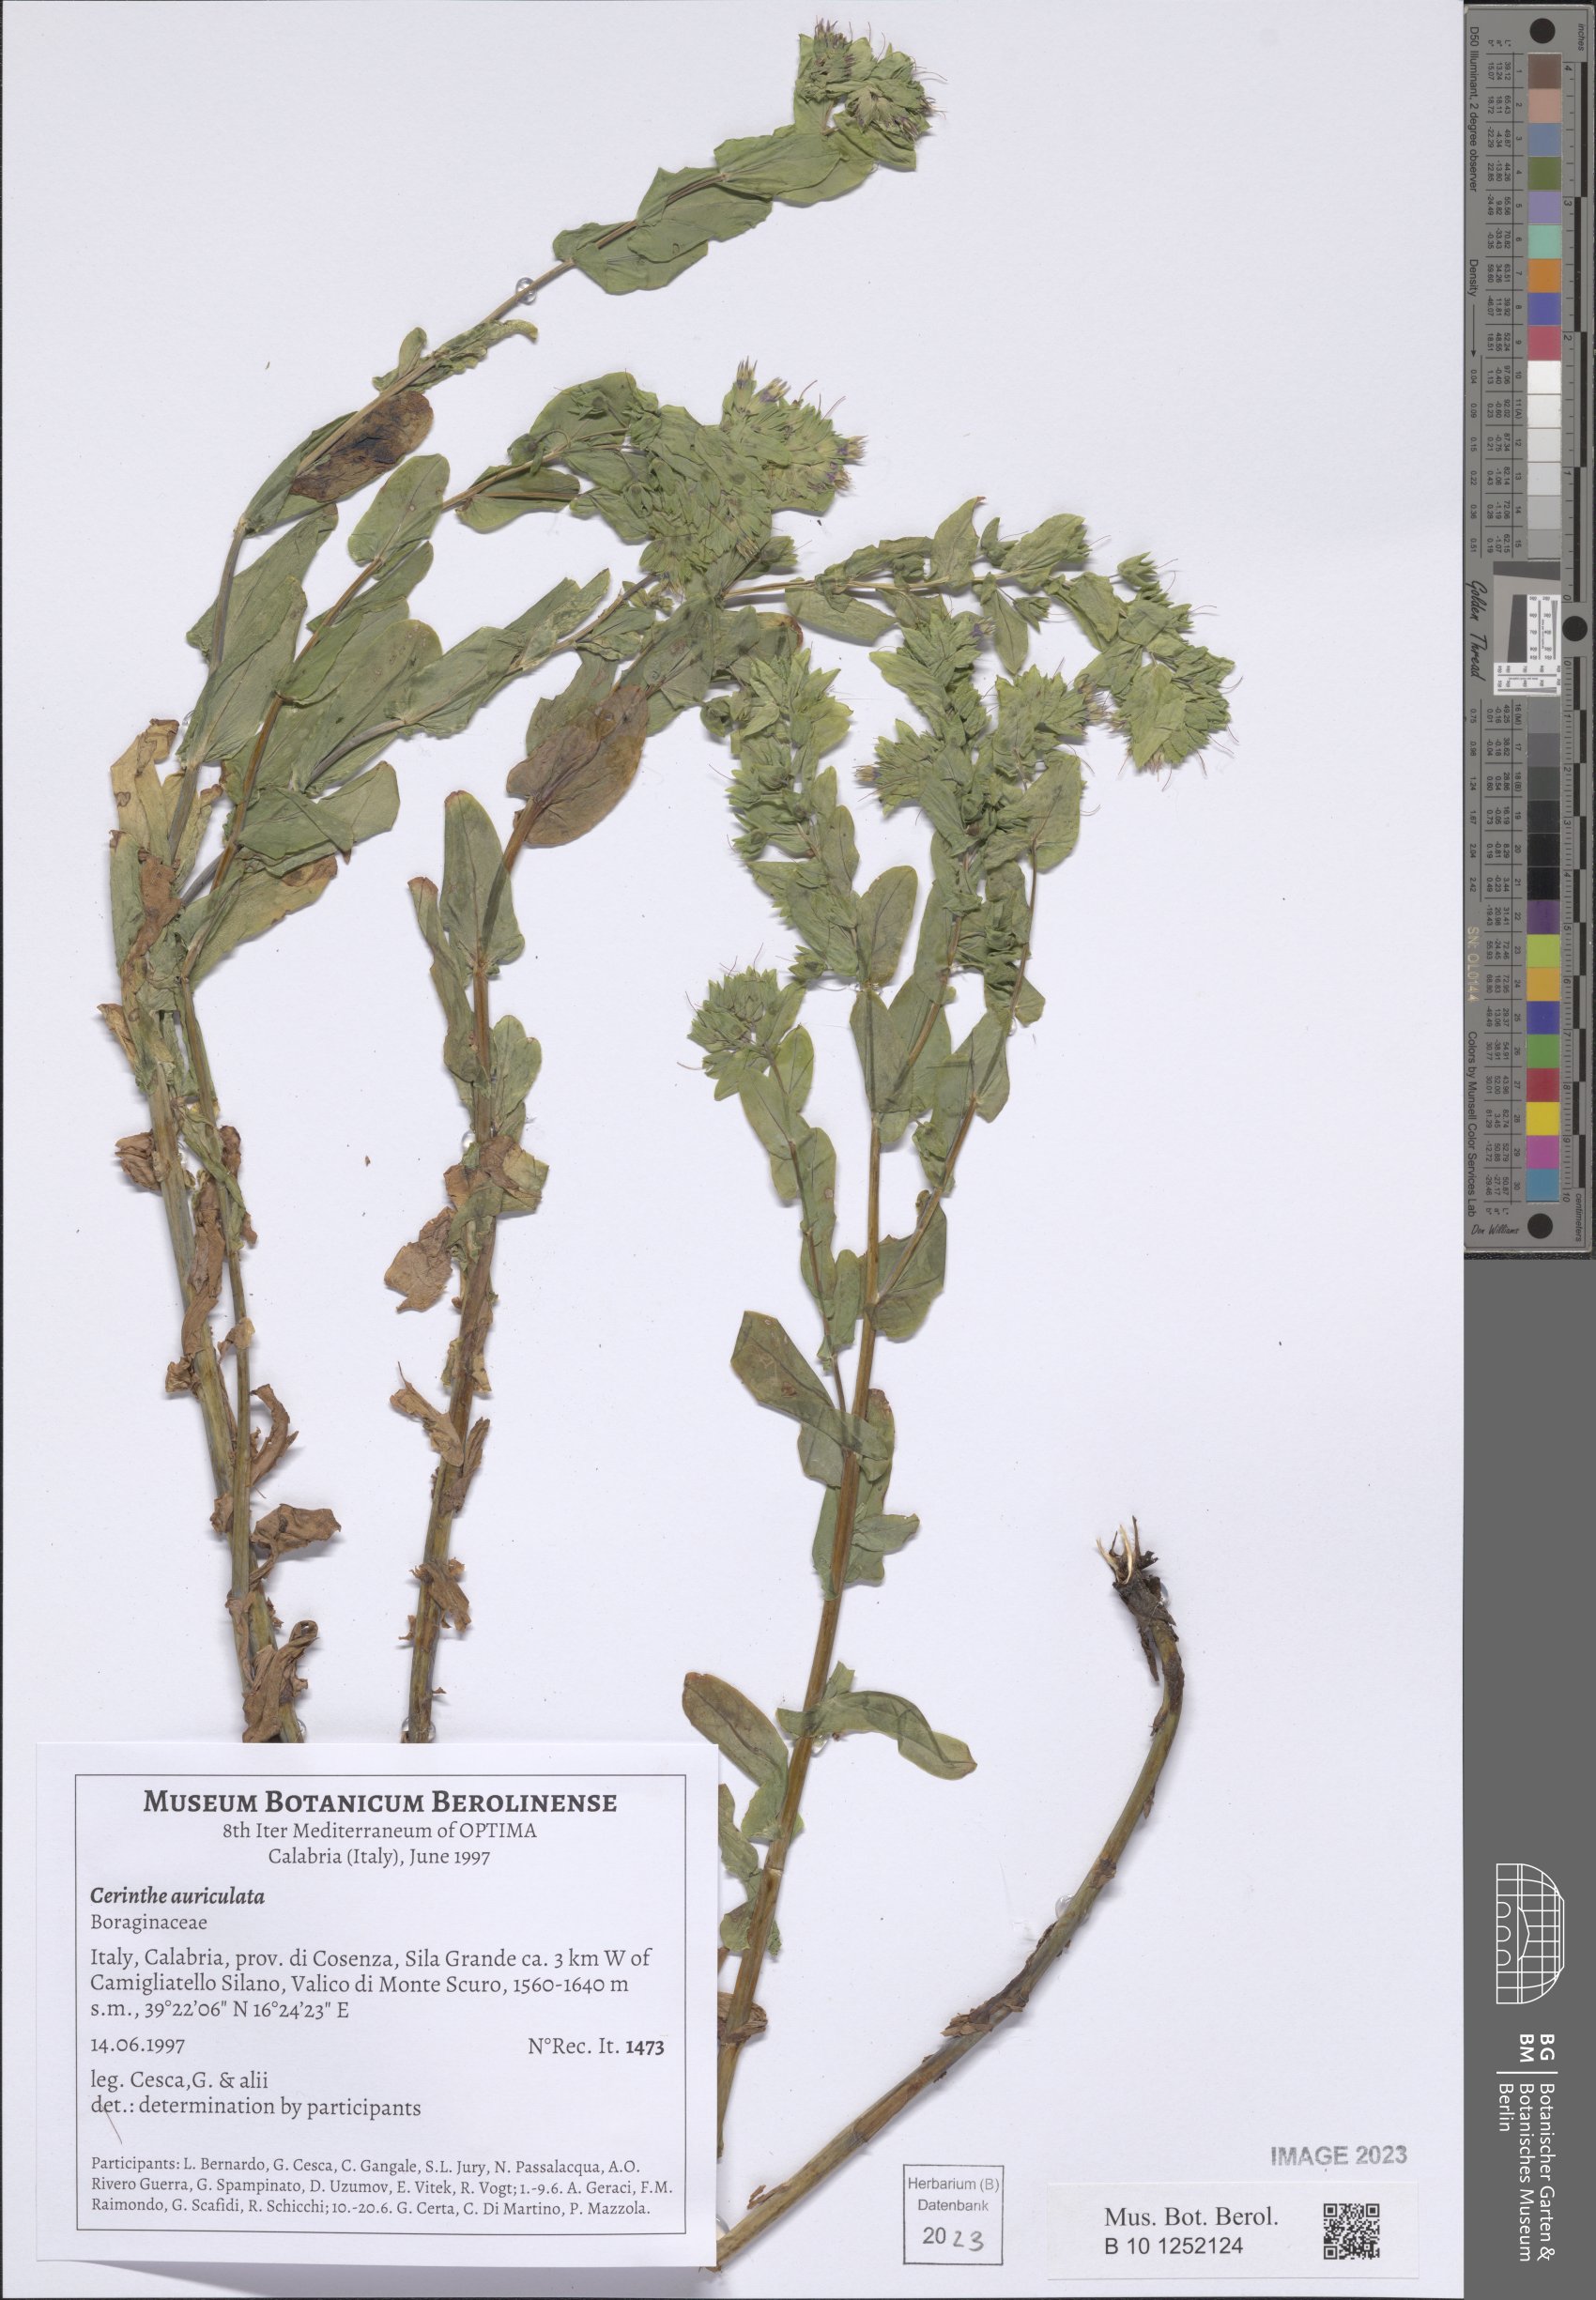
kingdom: Plantae
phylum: Tracheophyta
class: Magnoliopsida
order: Boraginales
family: Boraginaceae
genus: Cerinthe
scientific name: Cerinthe minor
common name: Lesser honeywort
